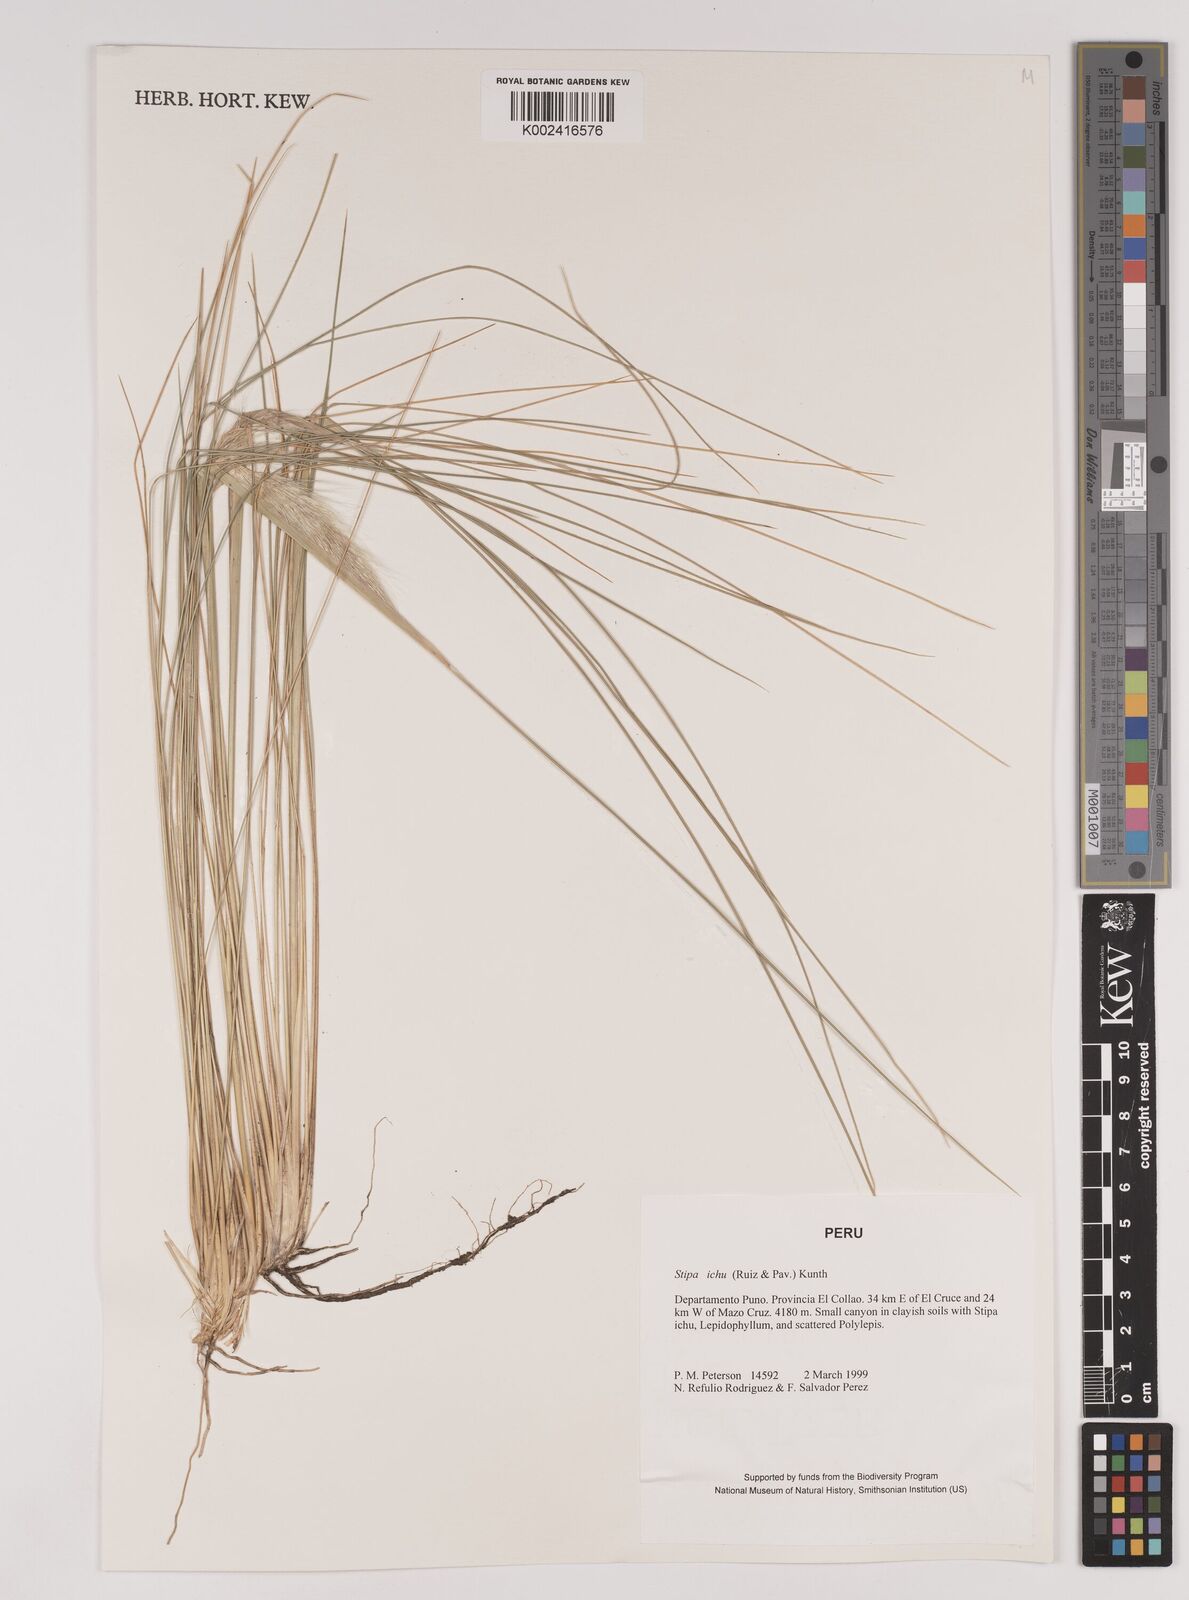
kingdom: Plantae
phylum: Tracheophyta
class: Liliopsida
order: Poales
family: Poaceae
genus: Jarava
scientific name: Jarava leptostachya
